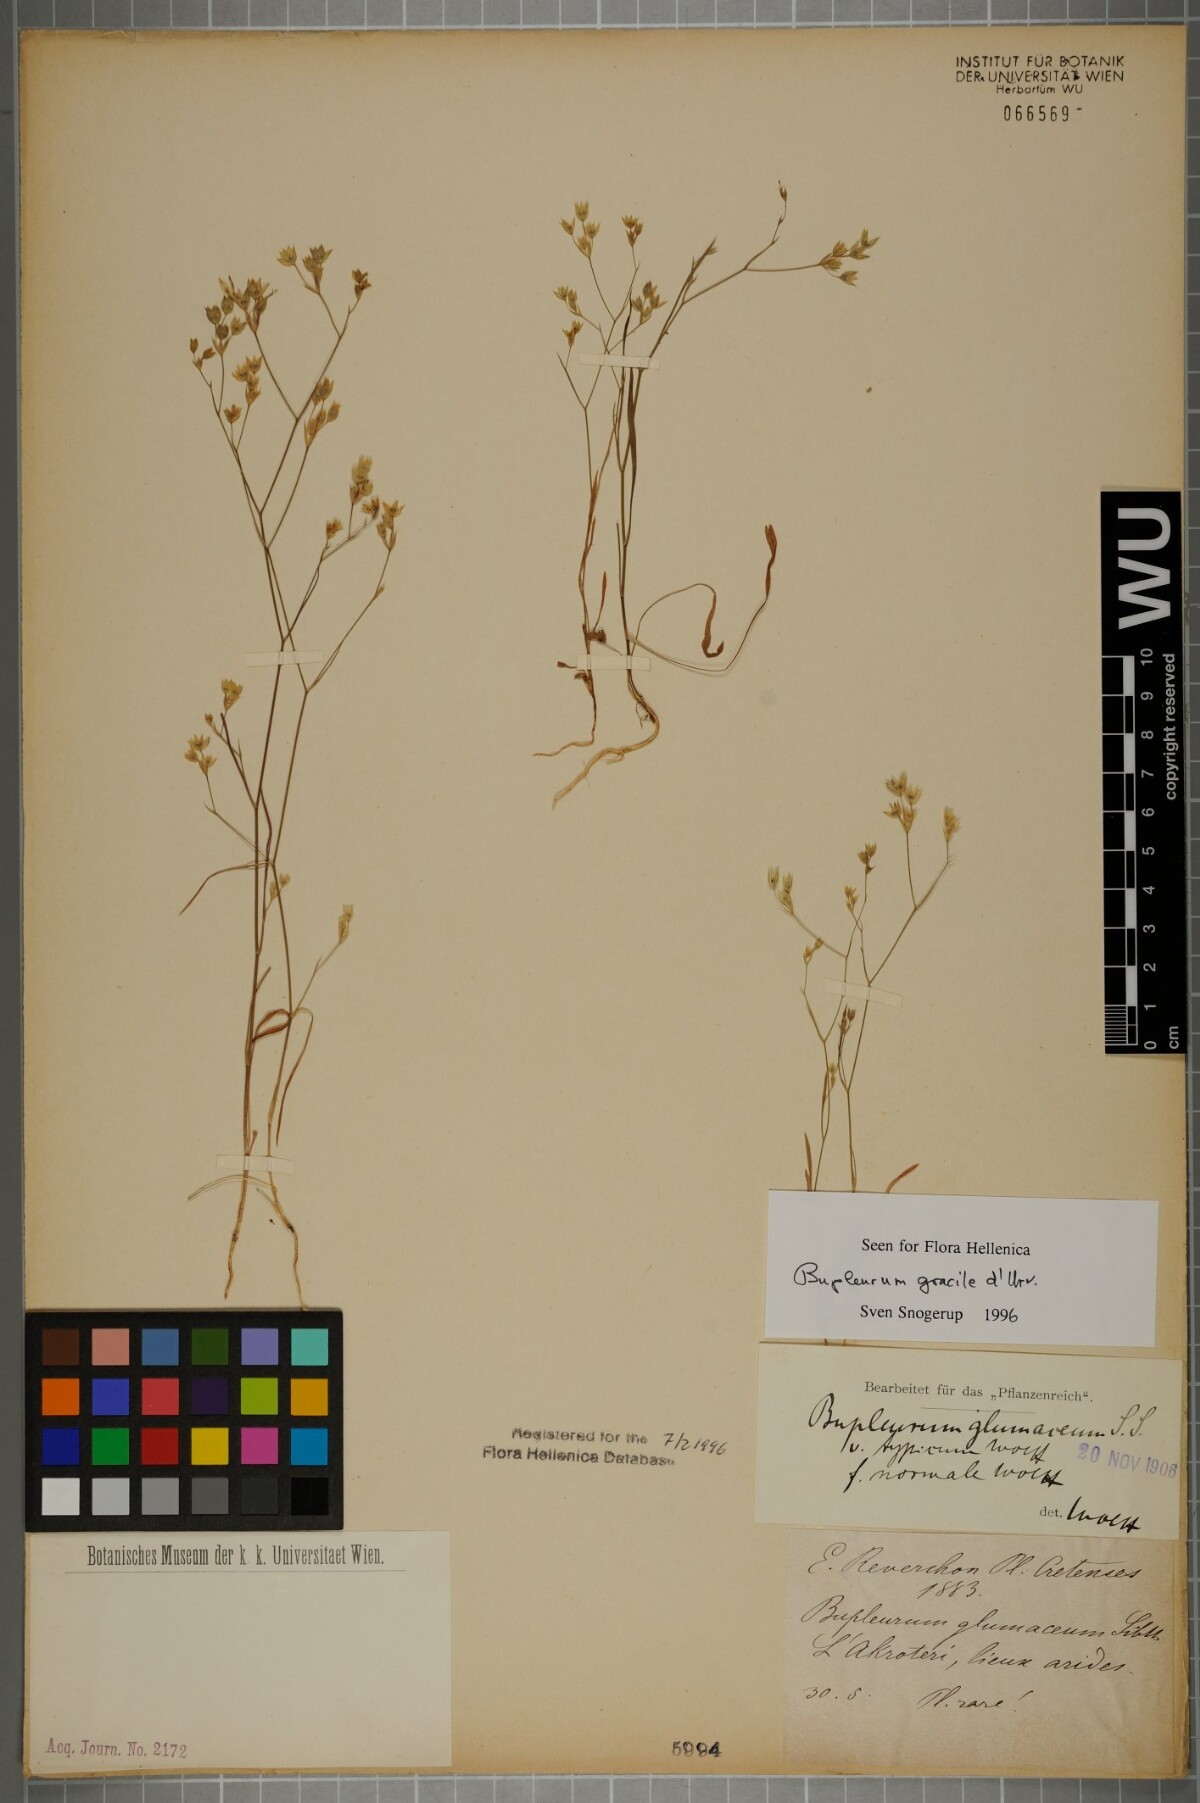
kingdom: Plantae
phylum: Tracheophyta
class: Magnoliopsida
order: Apiales
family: Apiaceae
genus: Bupleurum
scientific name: Bupleurum gracile
